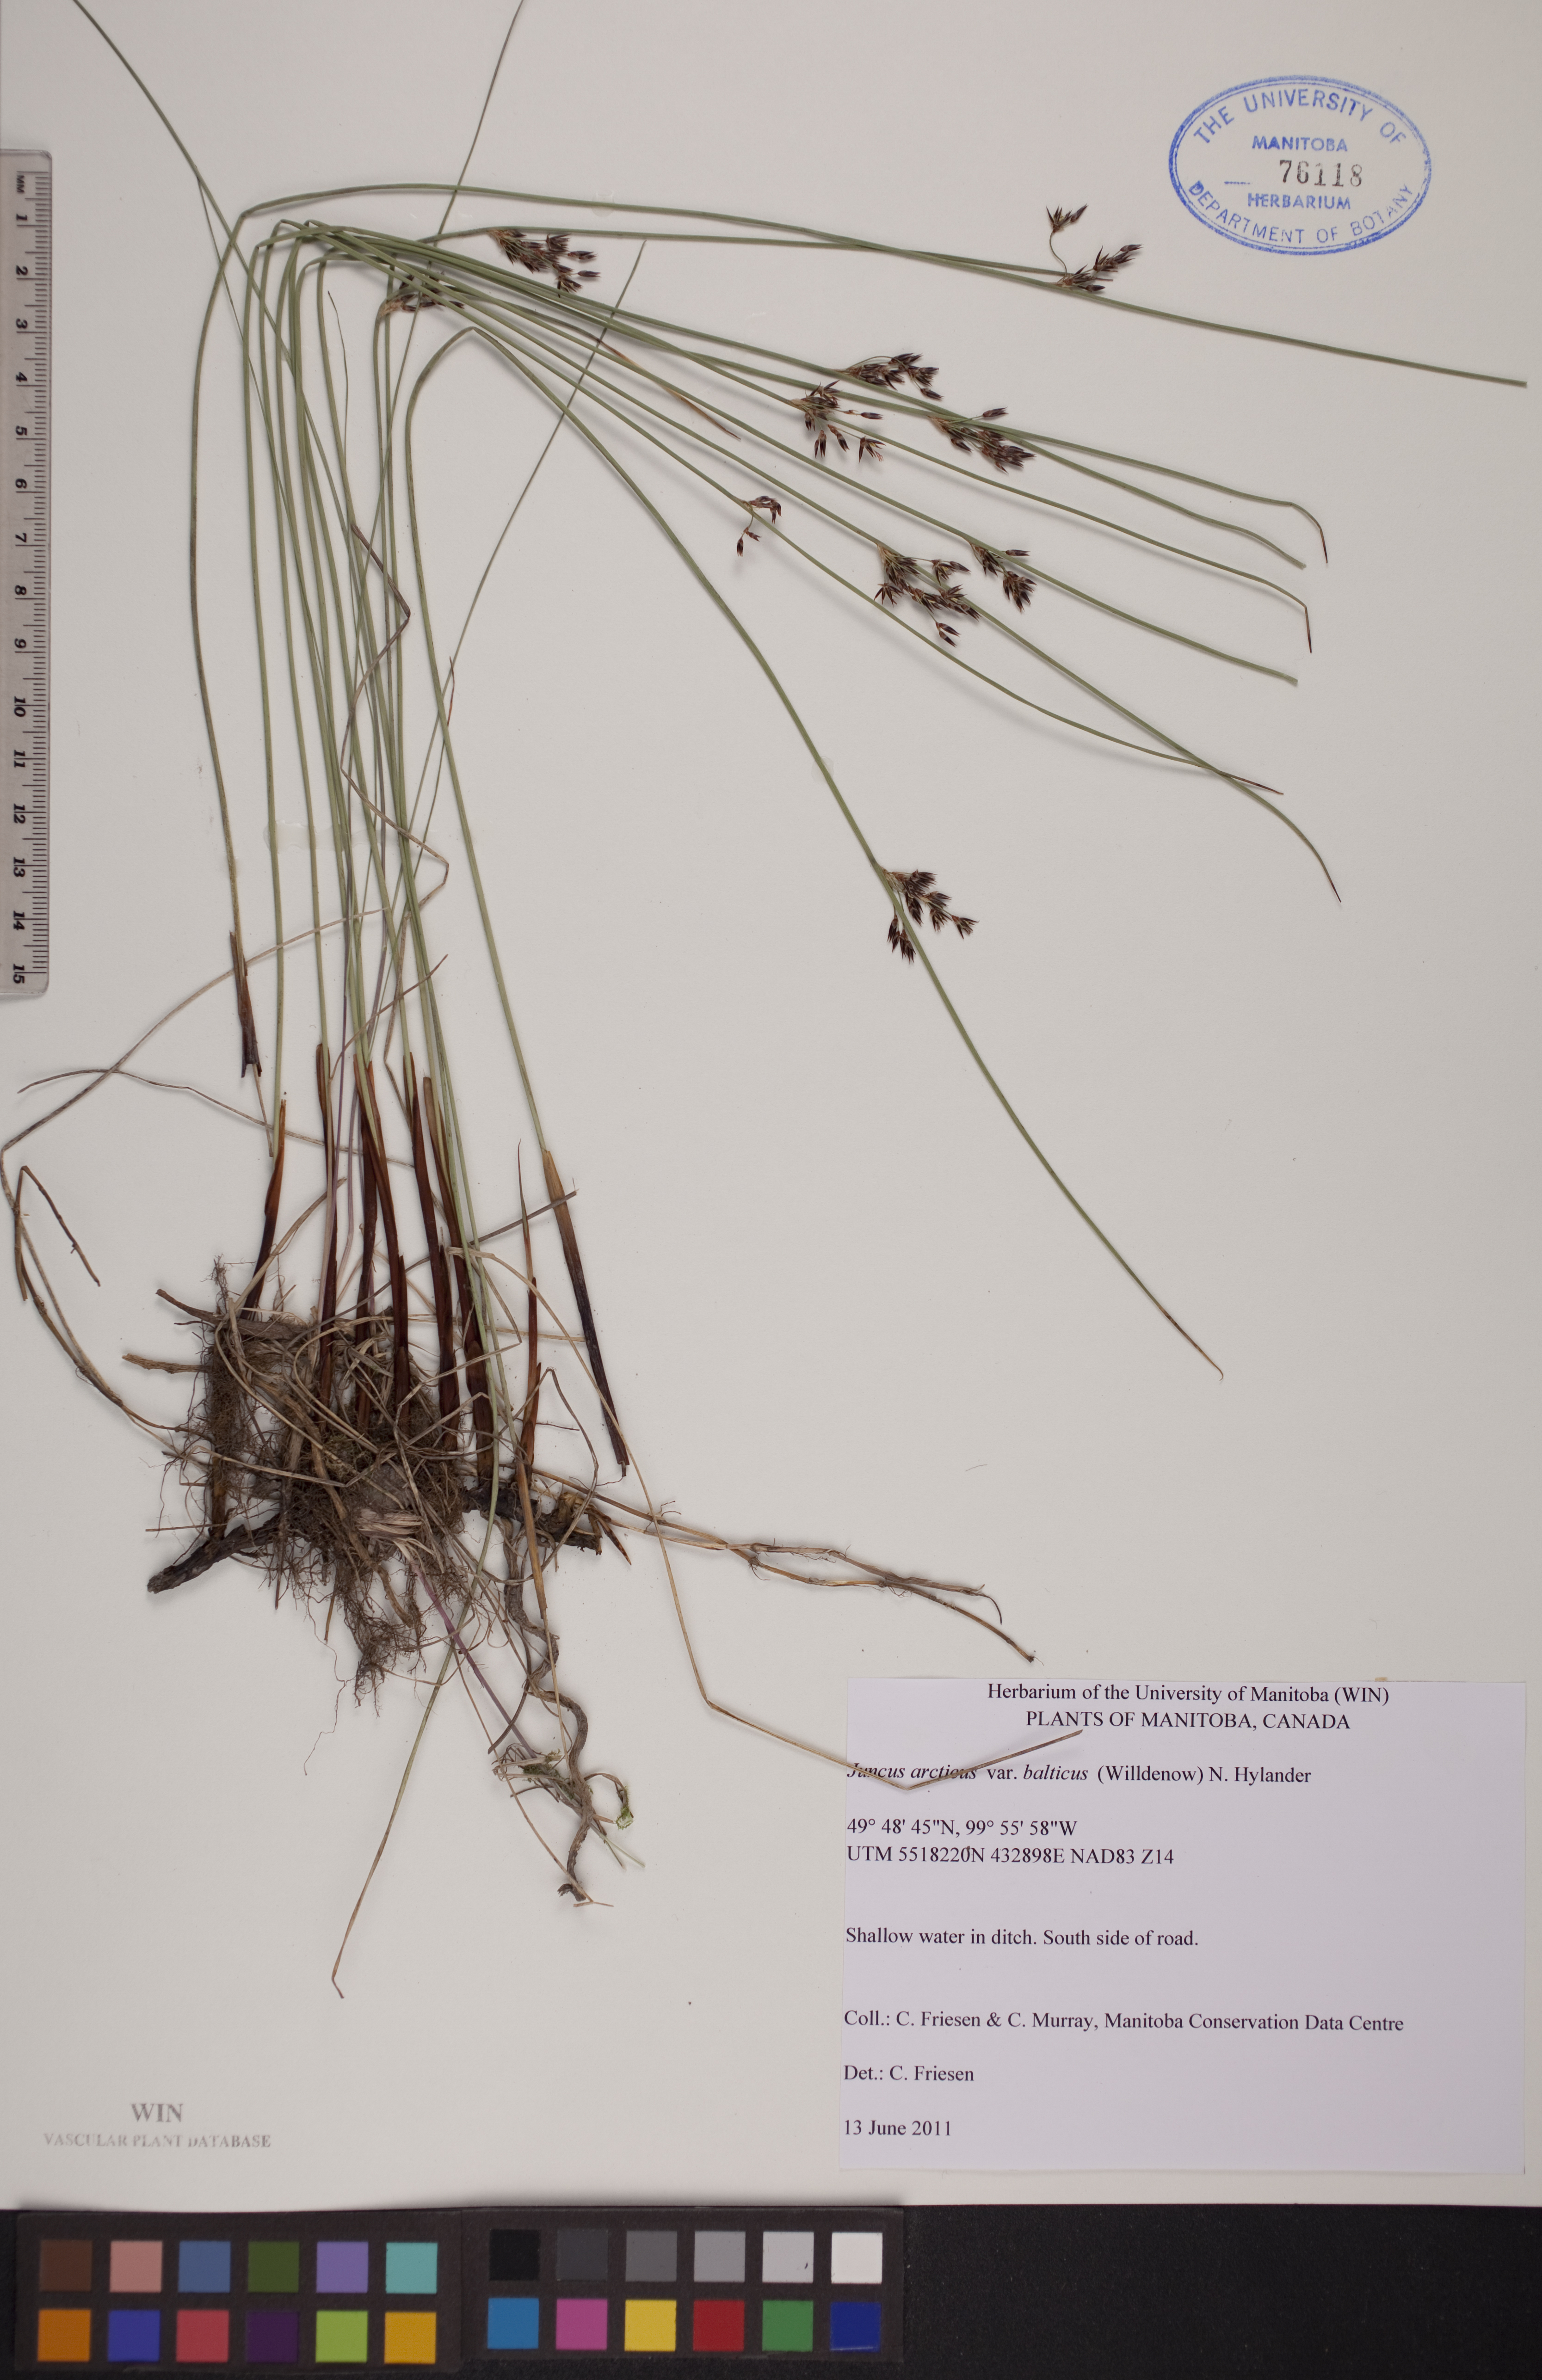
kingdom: Plantae
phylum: Tracheophyta
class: Liliopsida
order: Poales
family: Juncaceae
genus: Juncus
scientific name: Juncus balticus
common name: Baltic rush
